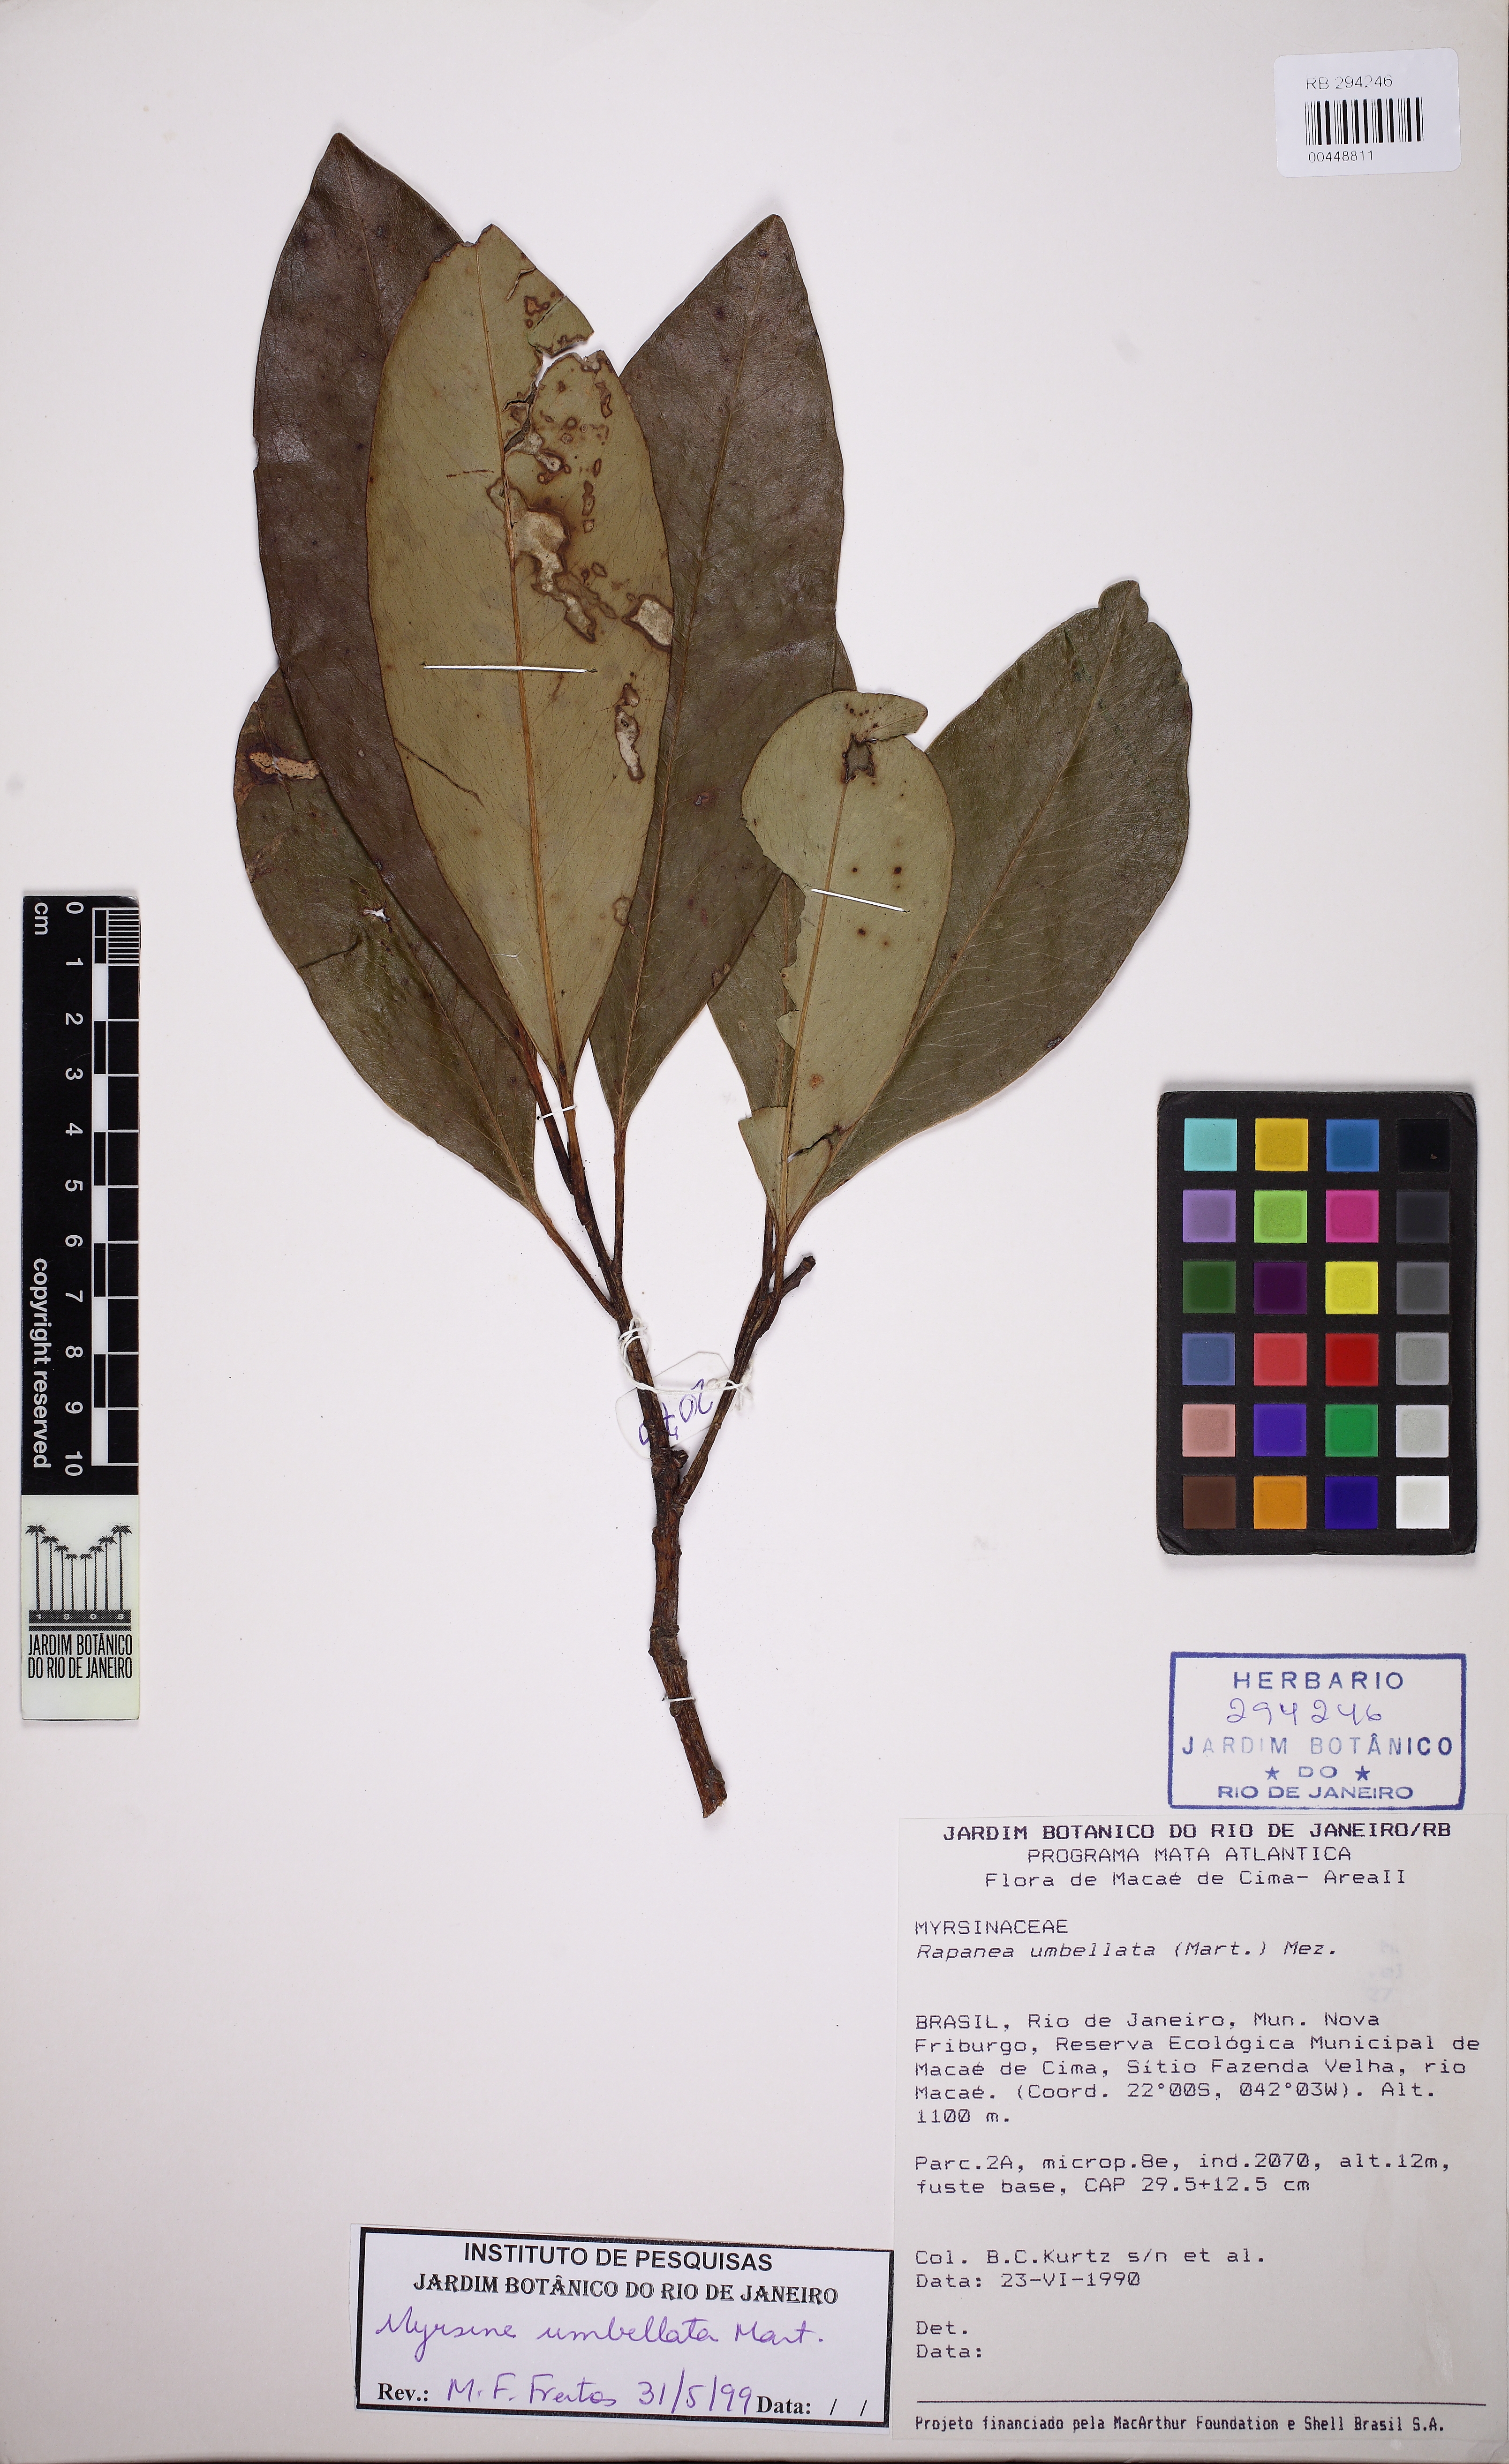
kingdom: Plantae
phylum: Tracheophyta
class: Magnoliopsida
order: Ericales
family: Primulaceae
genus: Myrsine
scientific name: Myrsine umbellata
